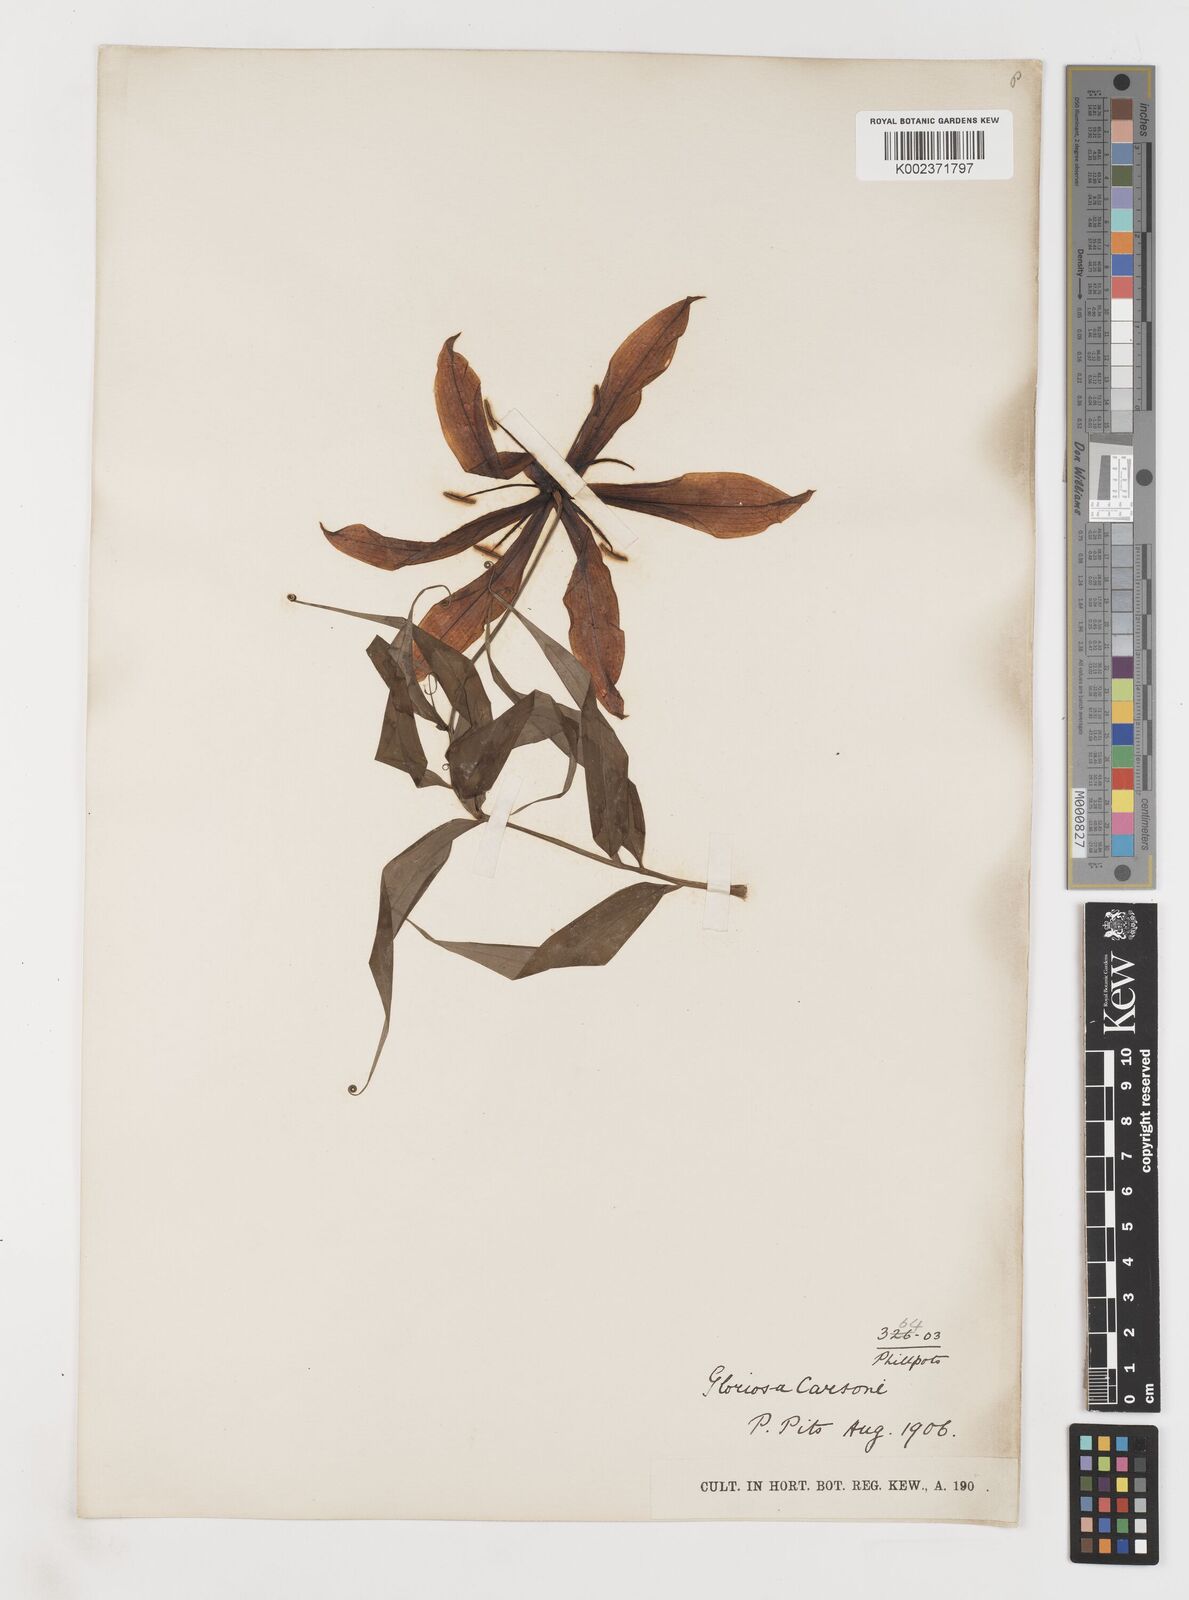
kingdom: Plantae
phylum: Tracheophyta
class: Liliopsida
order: Liliales
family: Colchicaceae
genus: Gloriosa
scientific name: Gloriosa simplex
